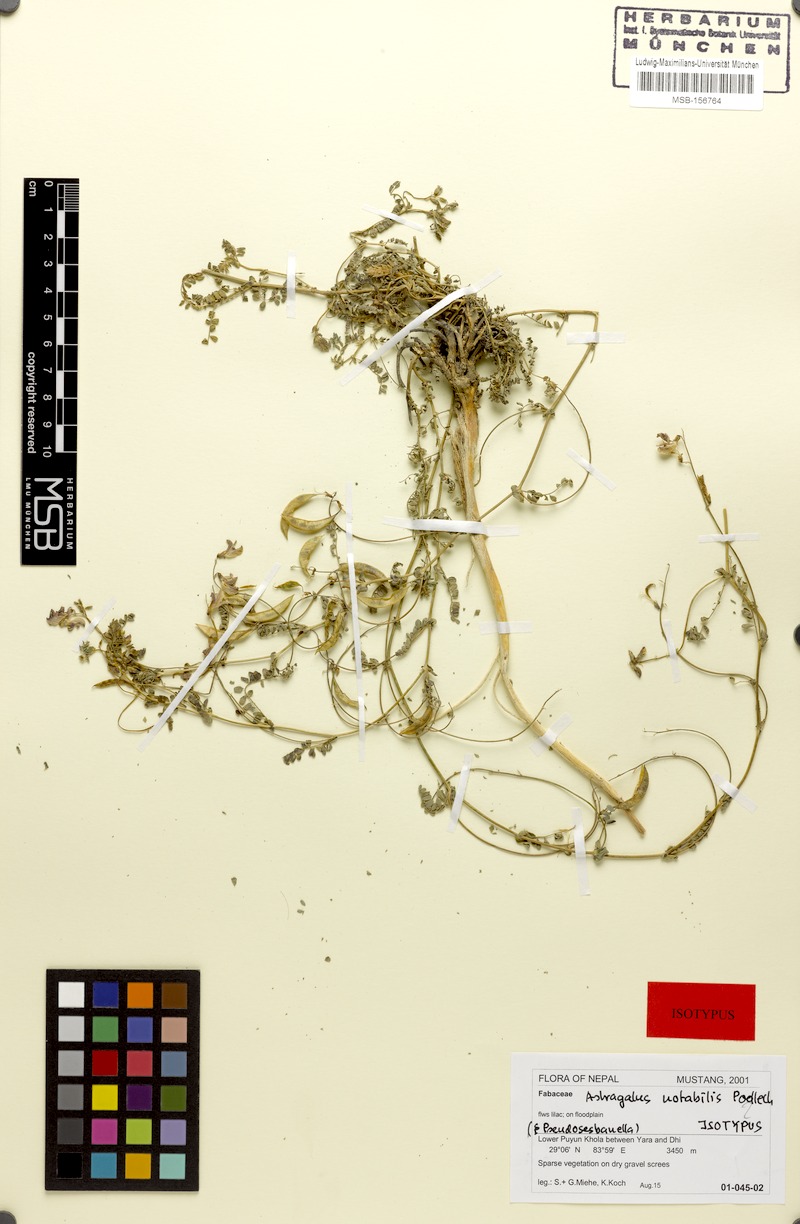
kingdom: Plantae
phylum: Tracheophyta
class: Magnoliopsida
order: Fabales
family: Fabaceae
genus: Astragalus
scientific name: Astragalus notabilis
